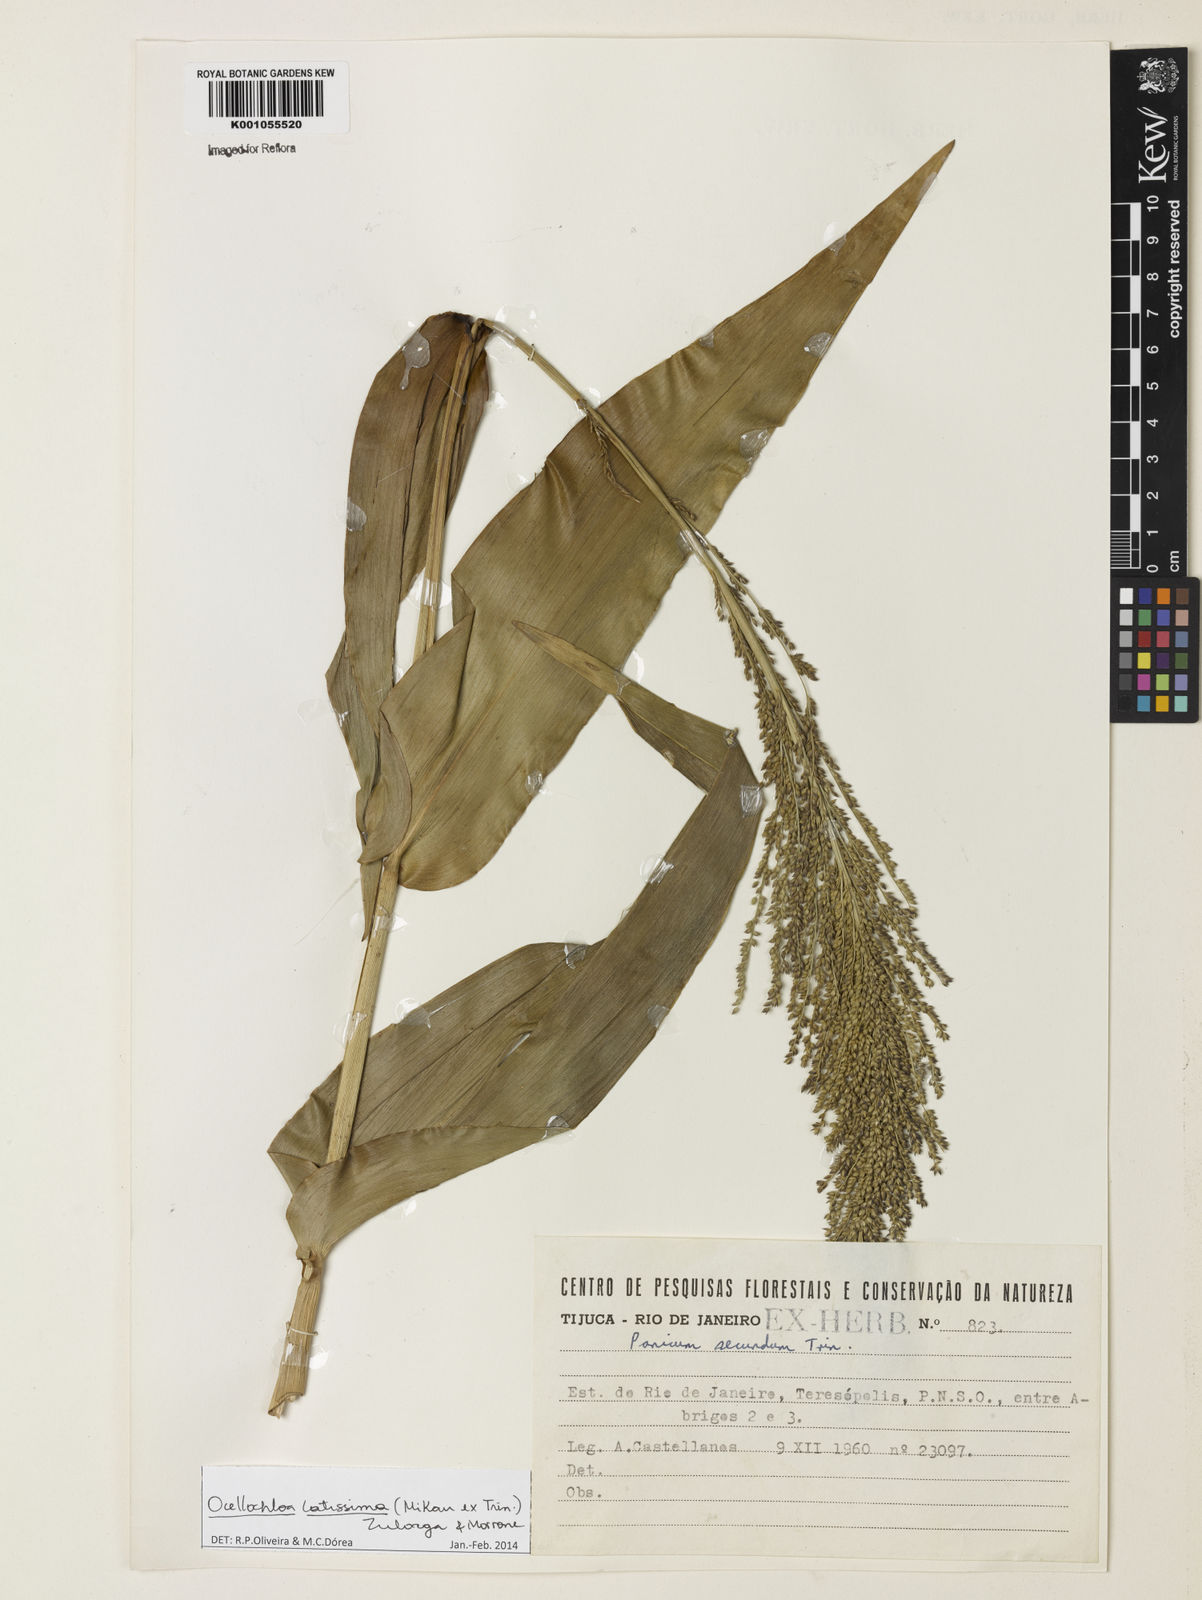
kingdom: Plantae
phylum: Tracheophyta
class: Liliopsida
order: Poales
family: Poaceae
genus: Ocellochloa
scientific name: Ocellochloa latissima
